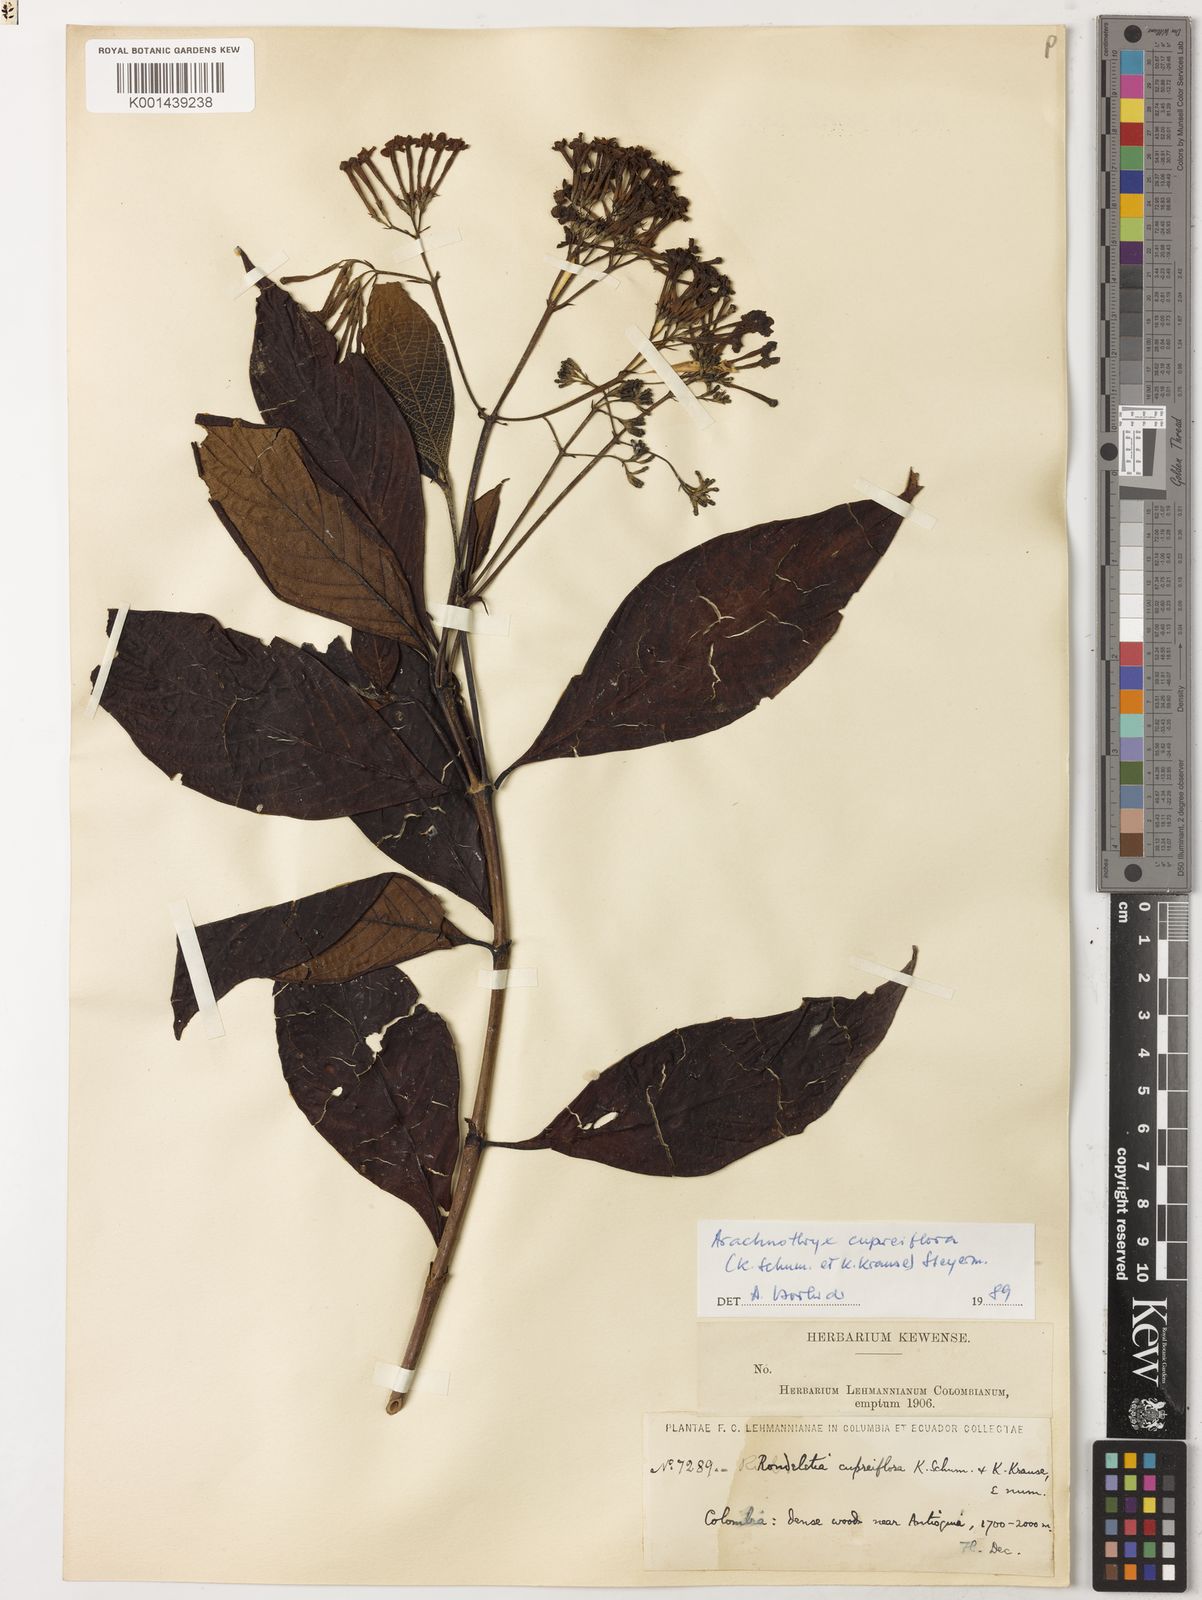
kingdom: Plantae
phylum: Tracheophyta
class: Magnoliopsida
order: Gentianales
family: Rubiaceae
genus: Arachnothryx
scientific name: Arachnothryx cupreiflora
